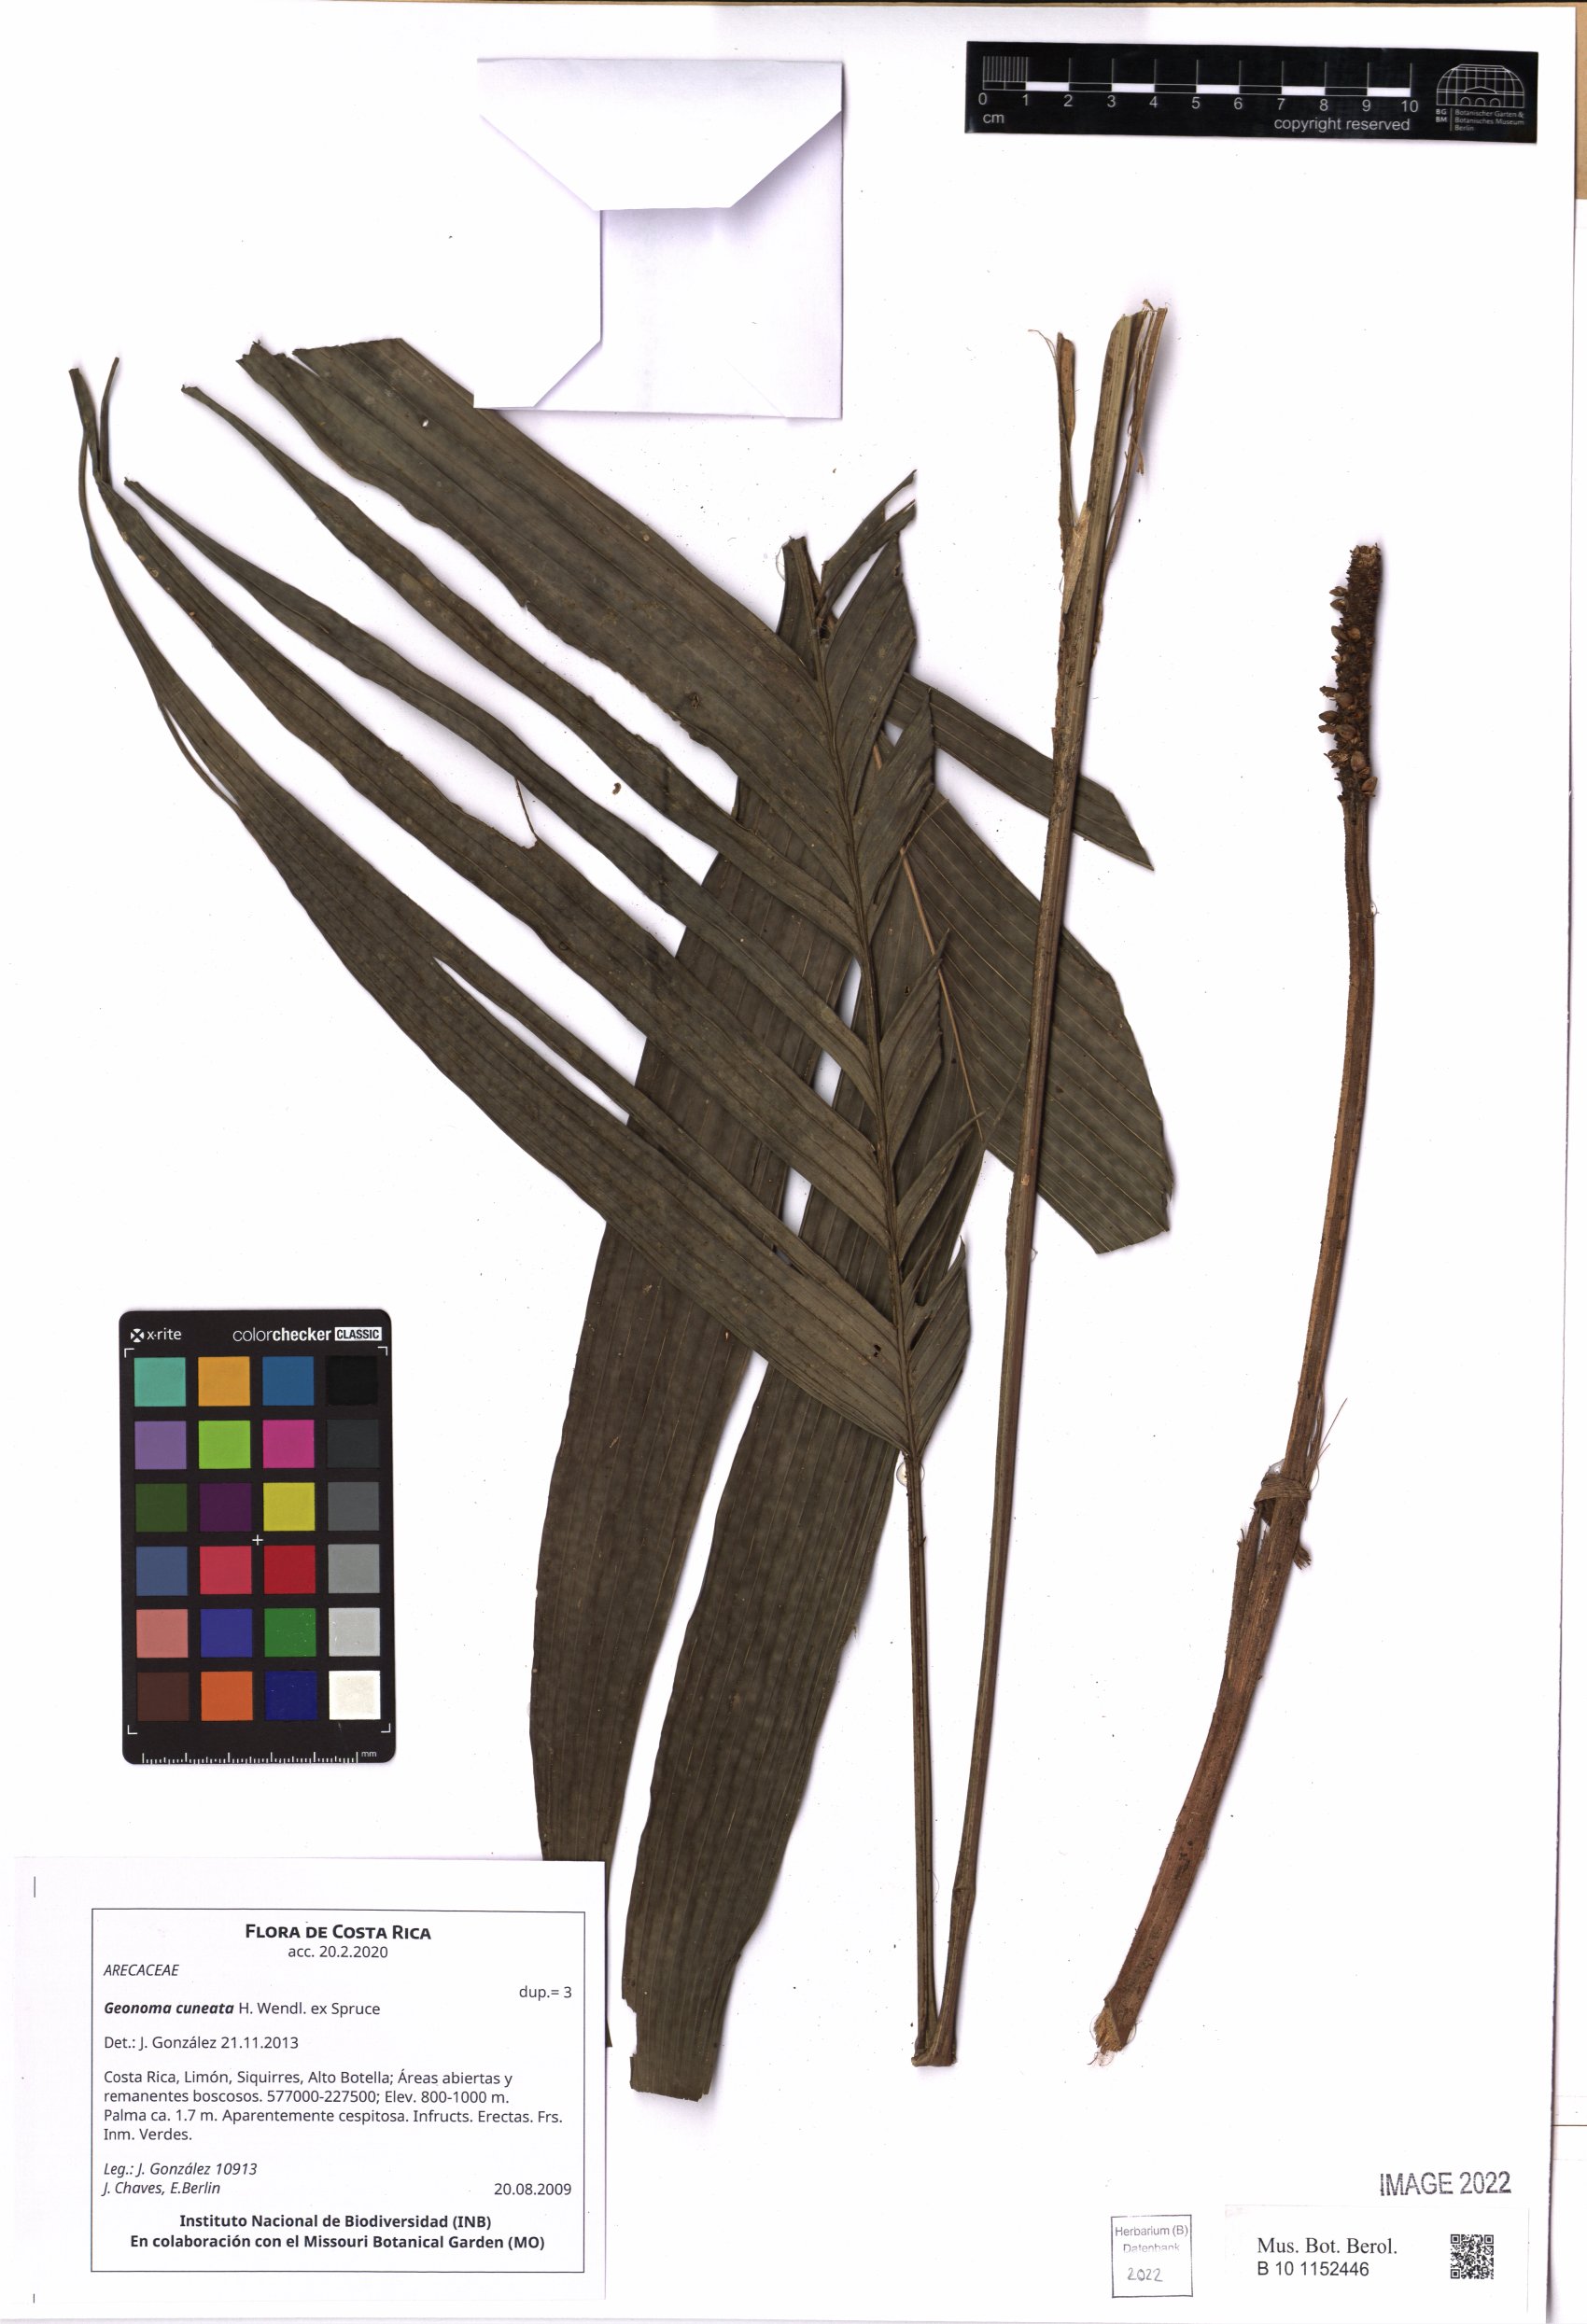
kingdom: Plantae
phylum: Charophyta
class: Charophyceae
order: Charales
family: Characeae
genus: Chara
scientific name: Chara
